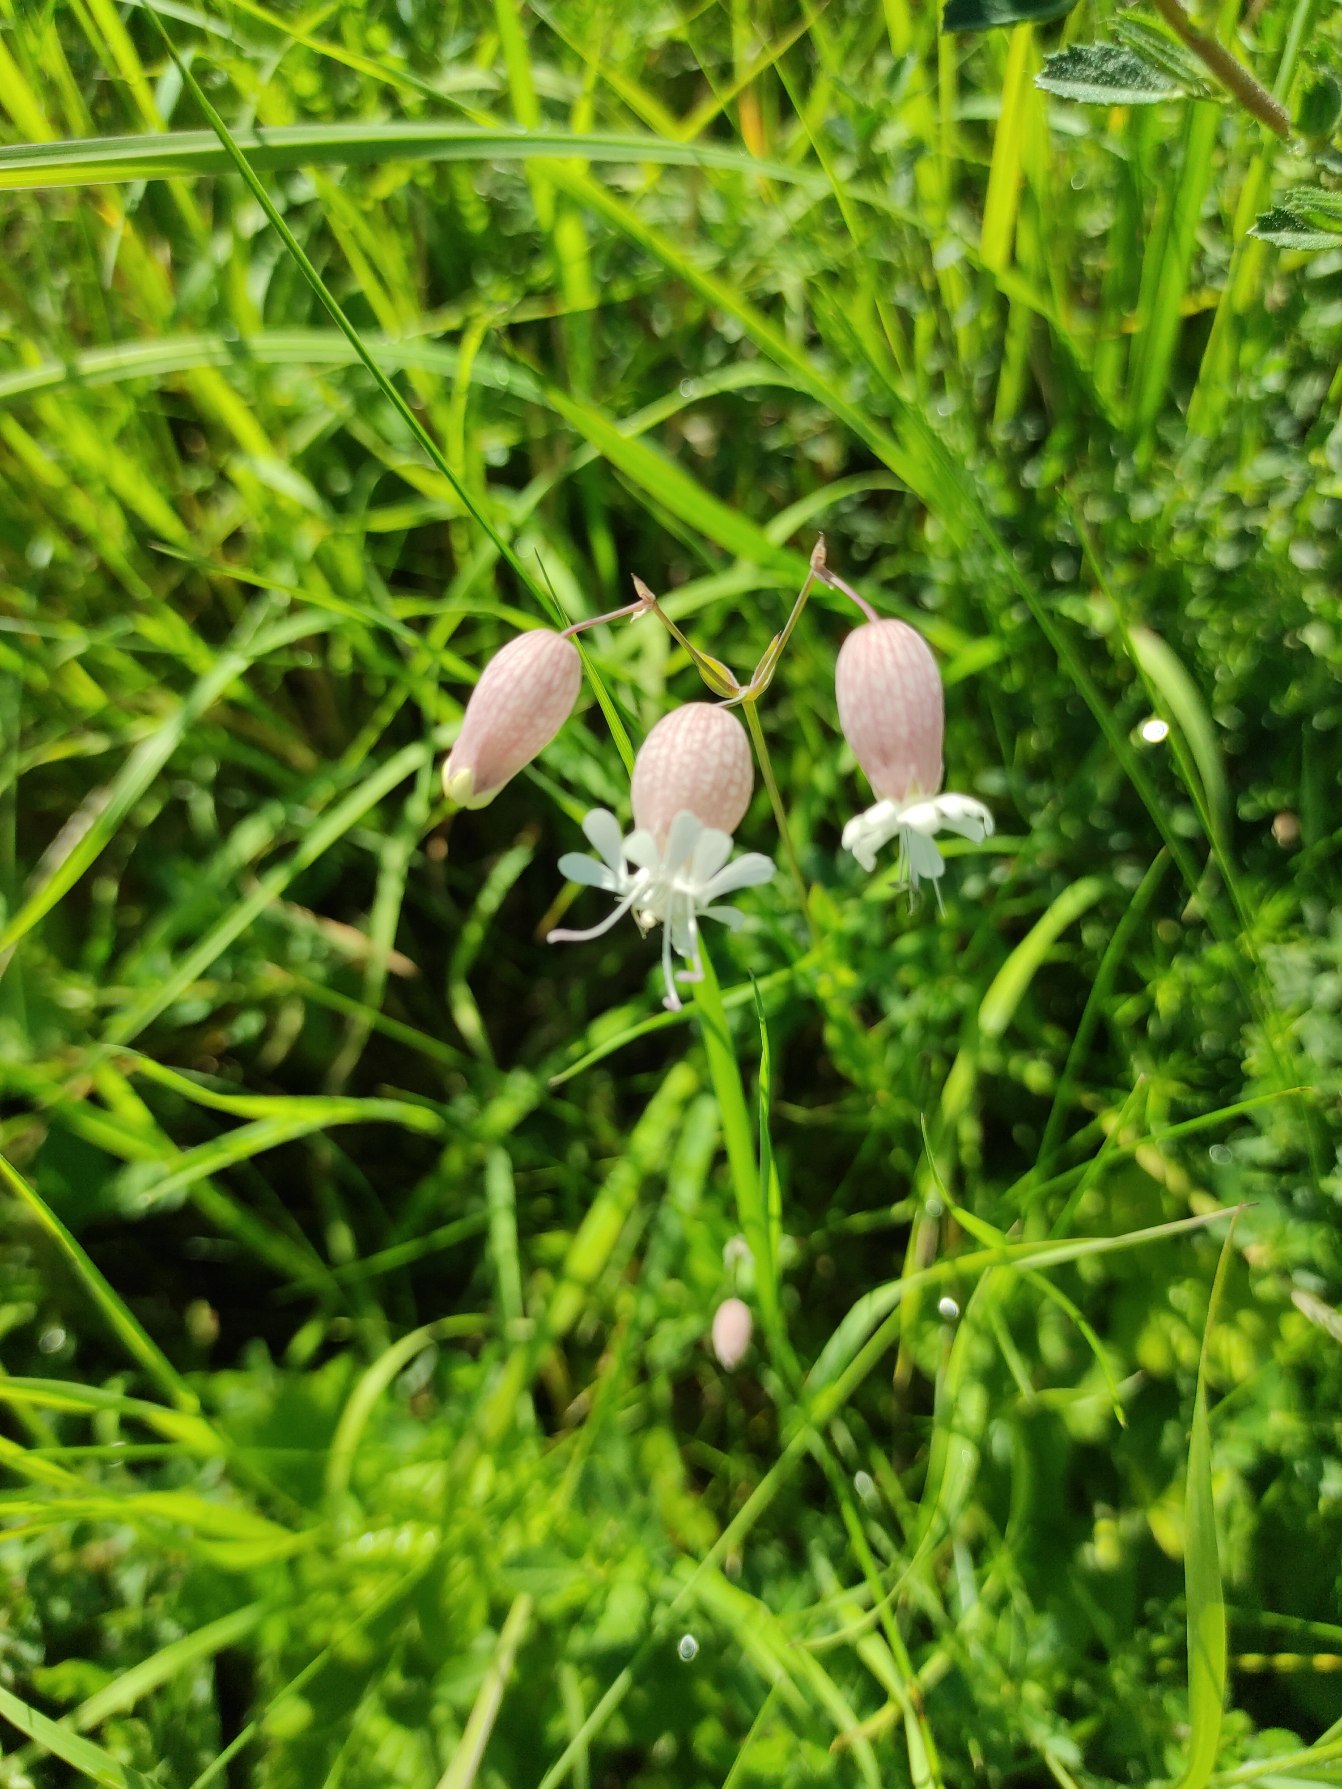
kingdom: Plantae
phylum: Tracheophyta
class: Magnoliopsida
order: Caryophyllales
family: Caryophyllaceae
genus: Silene
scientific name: Silene vulgaris
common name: Blæresmælde
